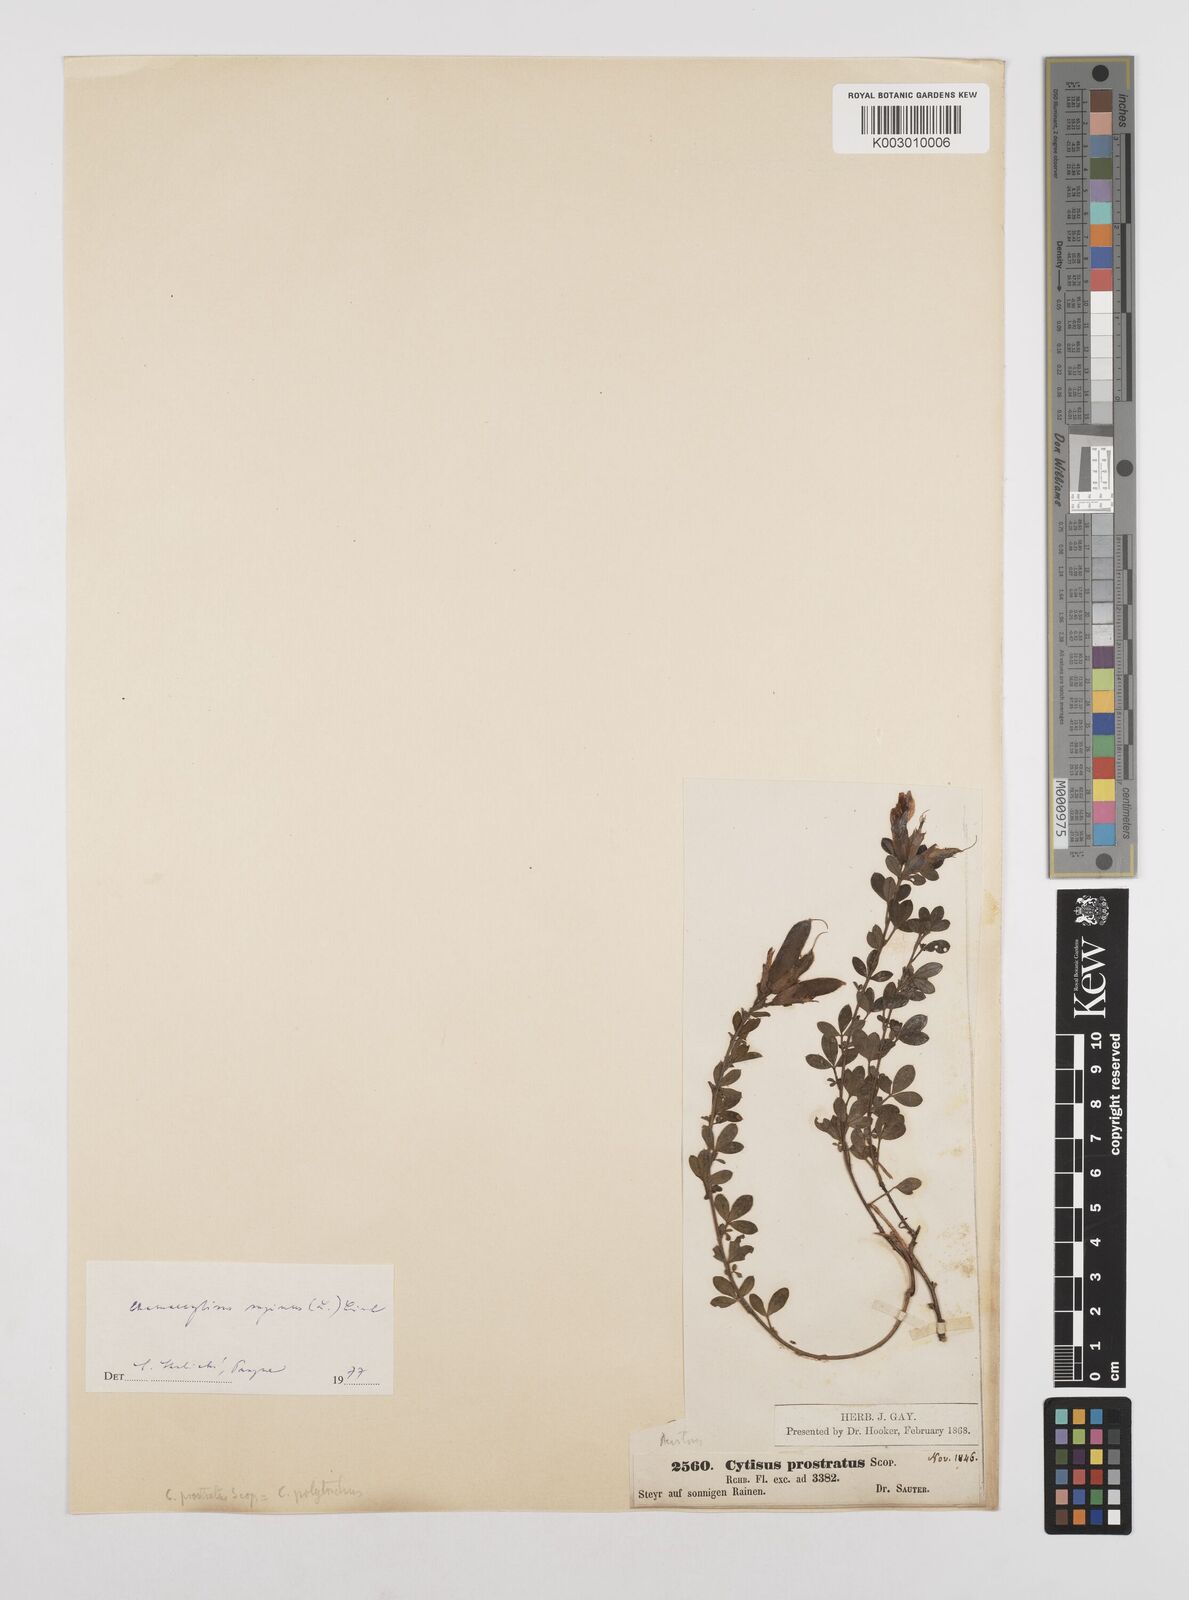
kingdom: Plantae
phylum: Tracheophyta
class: Magnoliopsida
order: Fabales
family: Fabaceae
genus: Chamaecytisus
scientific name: Chamaecytisus hirsutus
